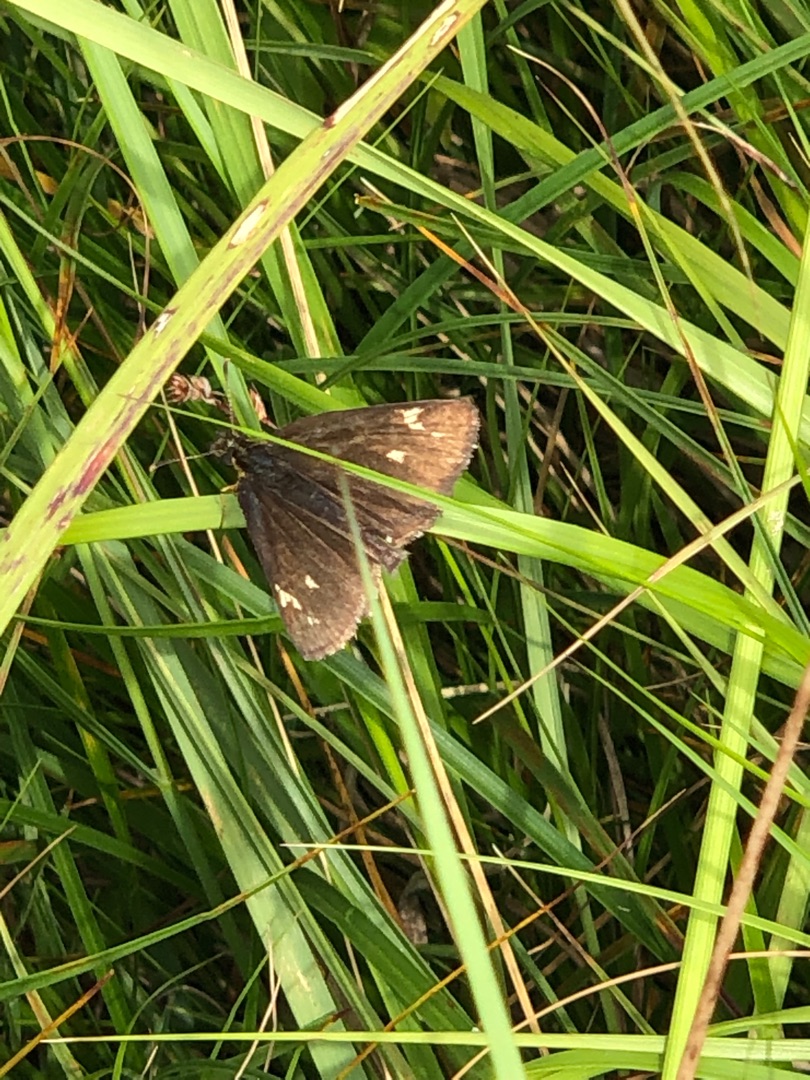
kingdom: Animalia
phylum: Arthropoda
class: Insecta
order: Lepidoptera
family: Hesperiidae
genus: Heteropterus
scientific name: Heteropterus morpheus
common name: Spejlbredpande
